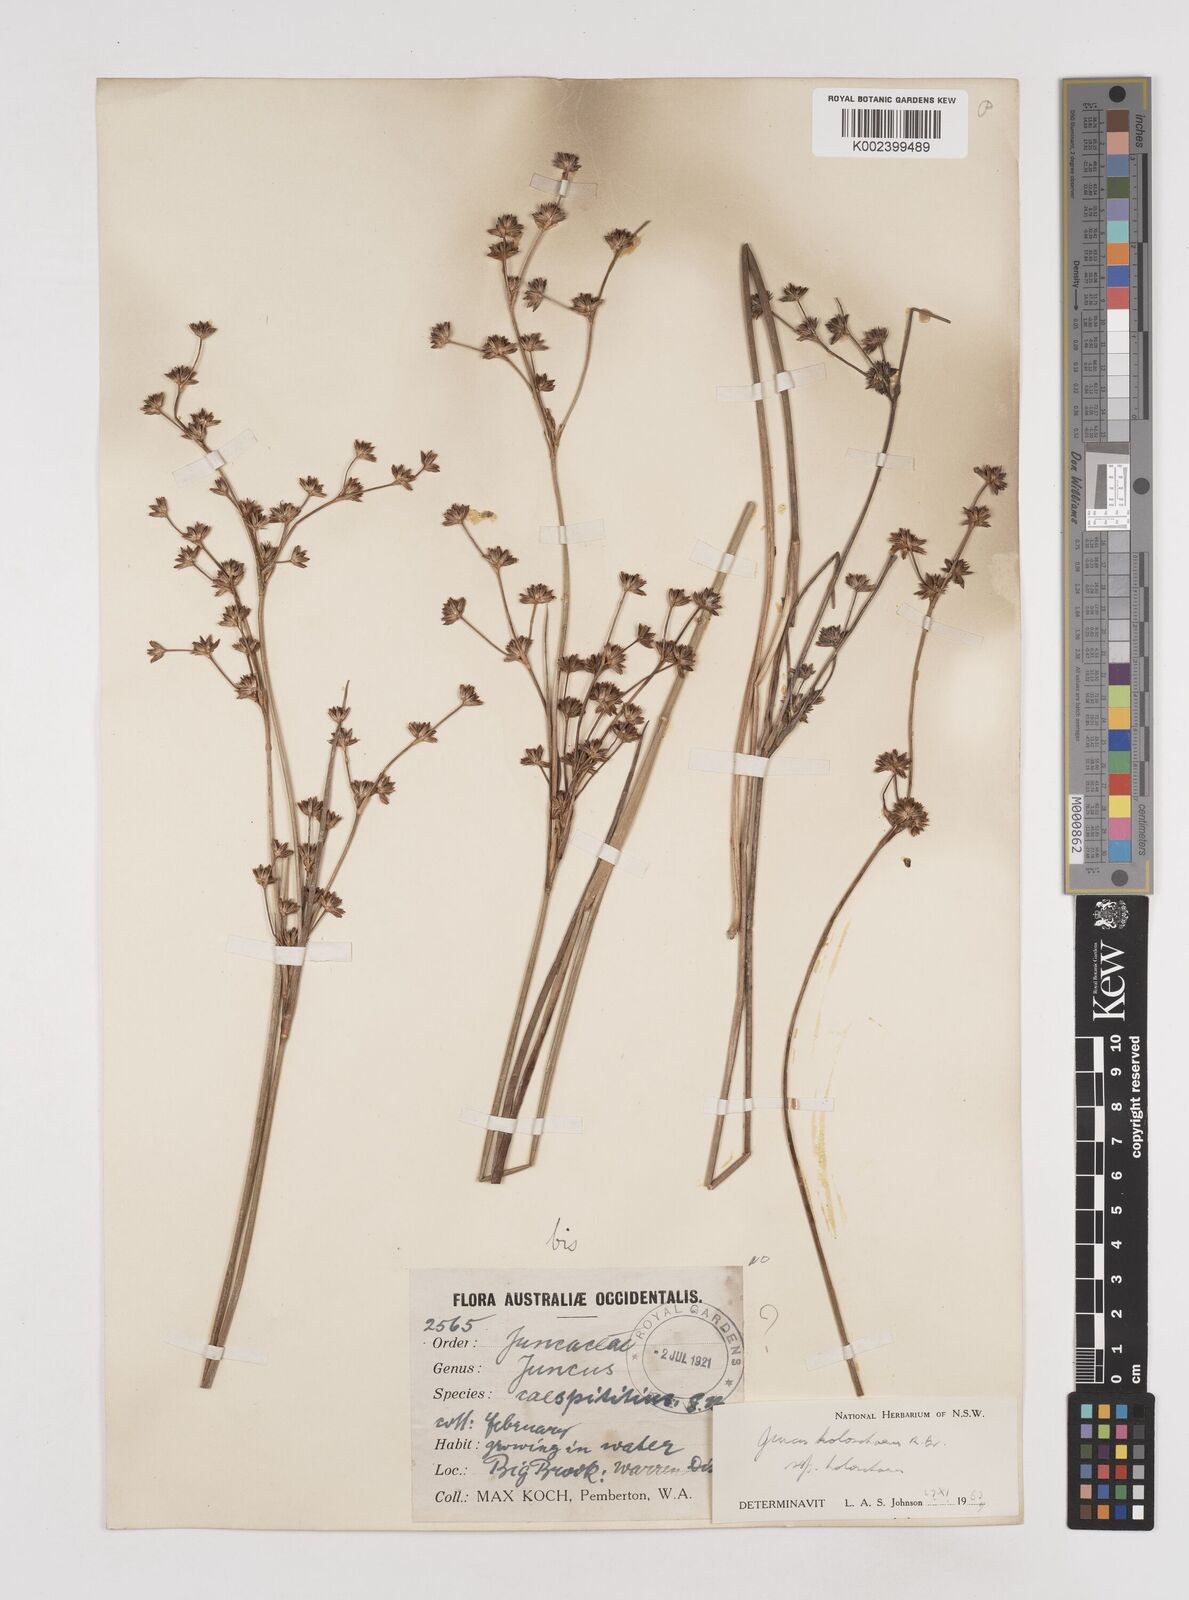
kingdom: Plantae
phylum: Tracheophyta
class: Liliopsida
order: Poales
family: Juncaceae
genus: Juncus
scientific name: Juncus holoschoenus
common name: Joint-leaf rush
